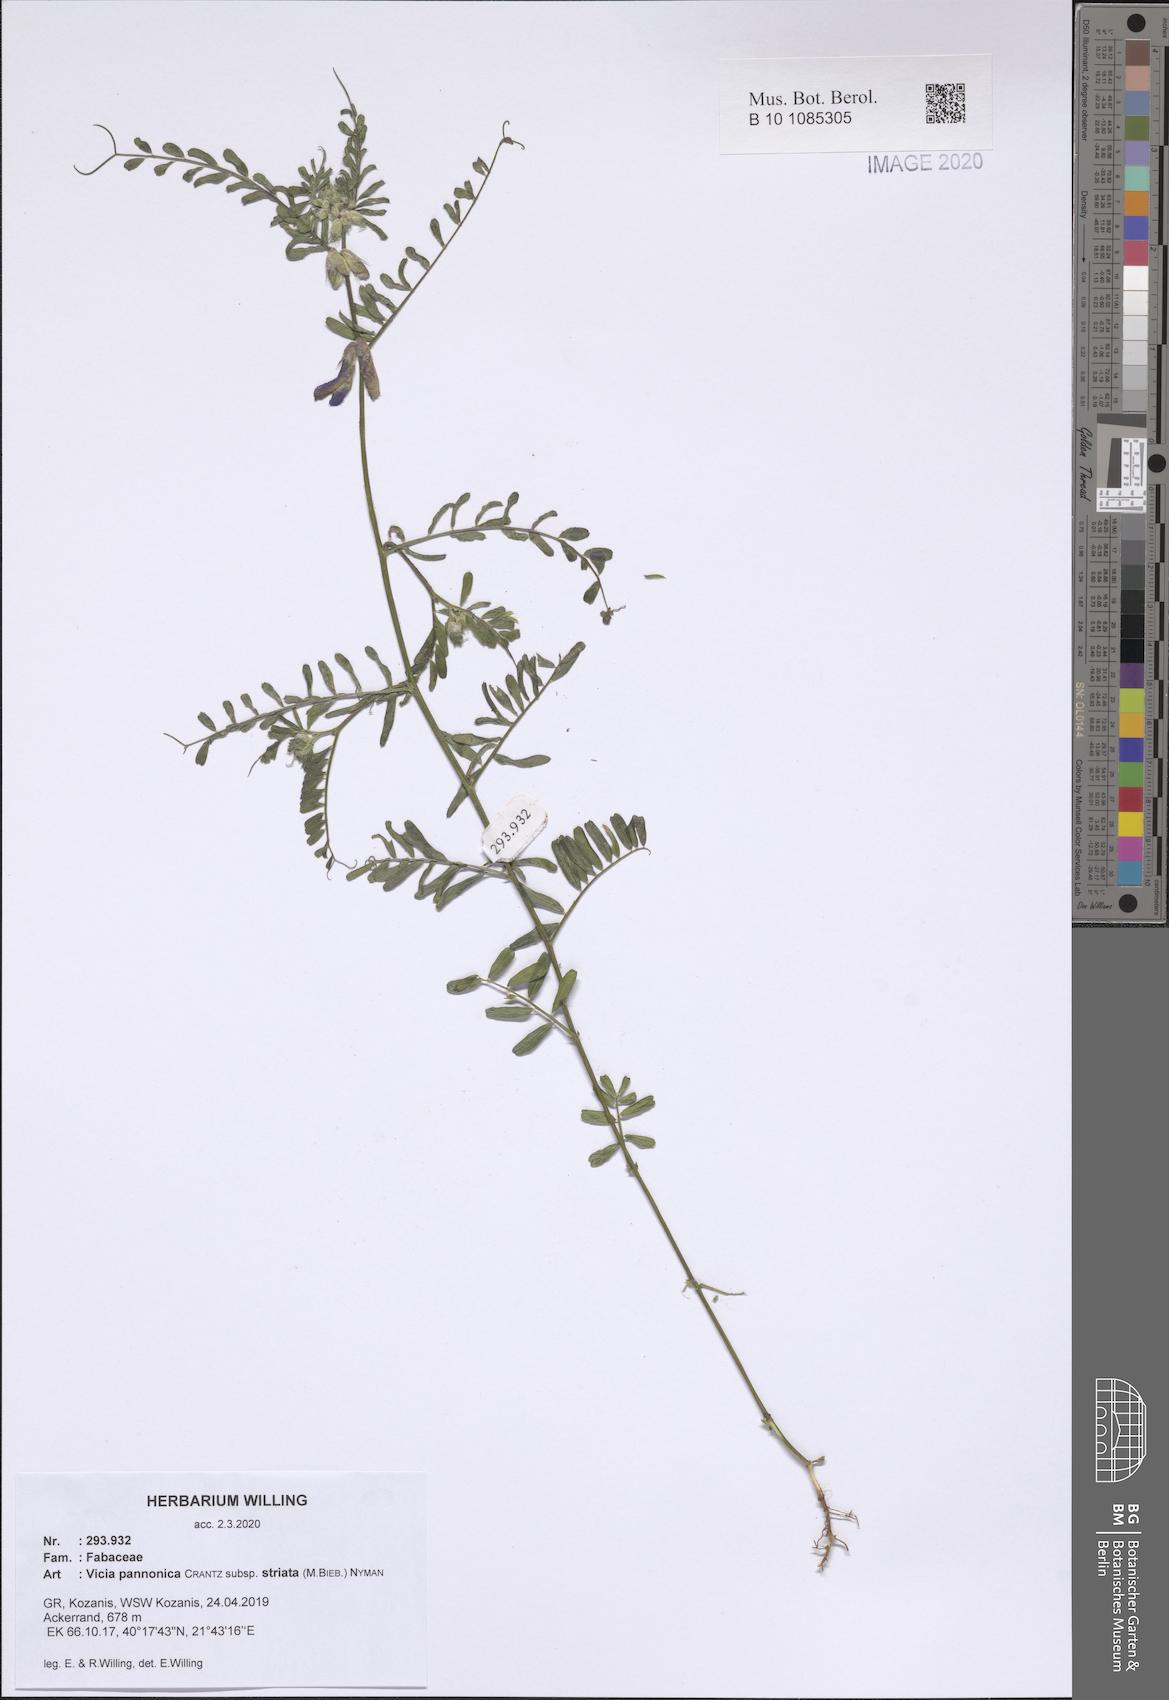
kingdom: Plantae
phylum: Tracheophyta
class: Magnoliopsida
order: Fabales
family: Fabaceae
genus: Vicia
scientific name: Vicia pannonica
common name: Hungarian vetch
